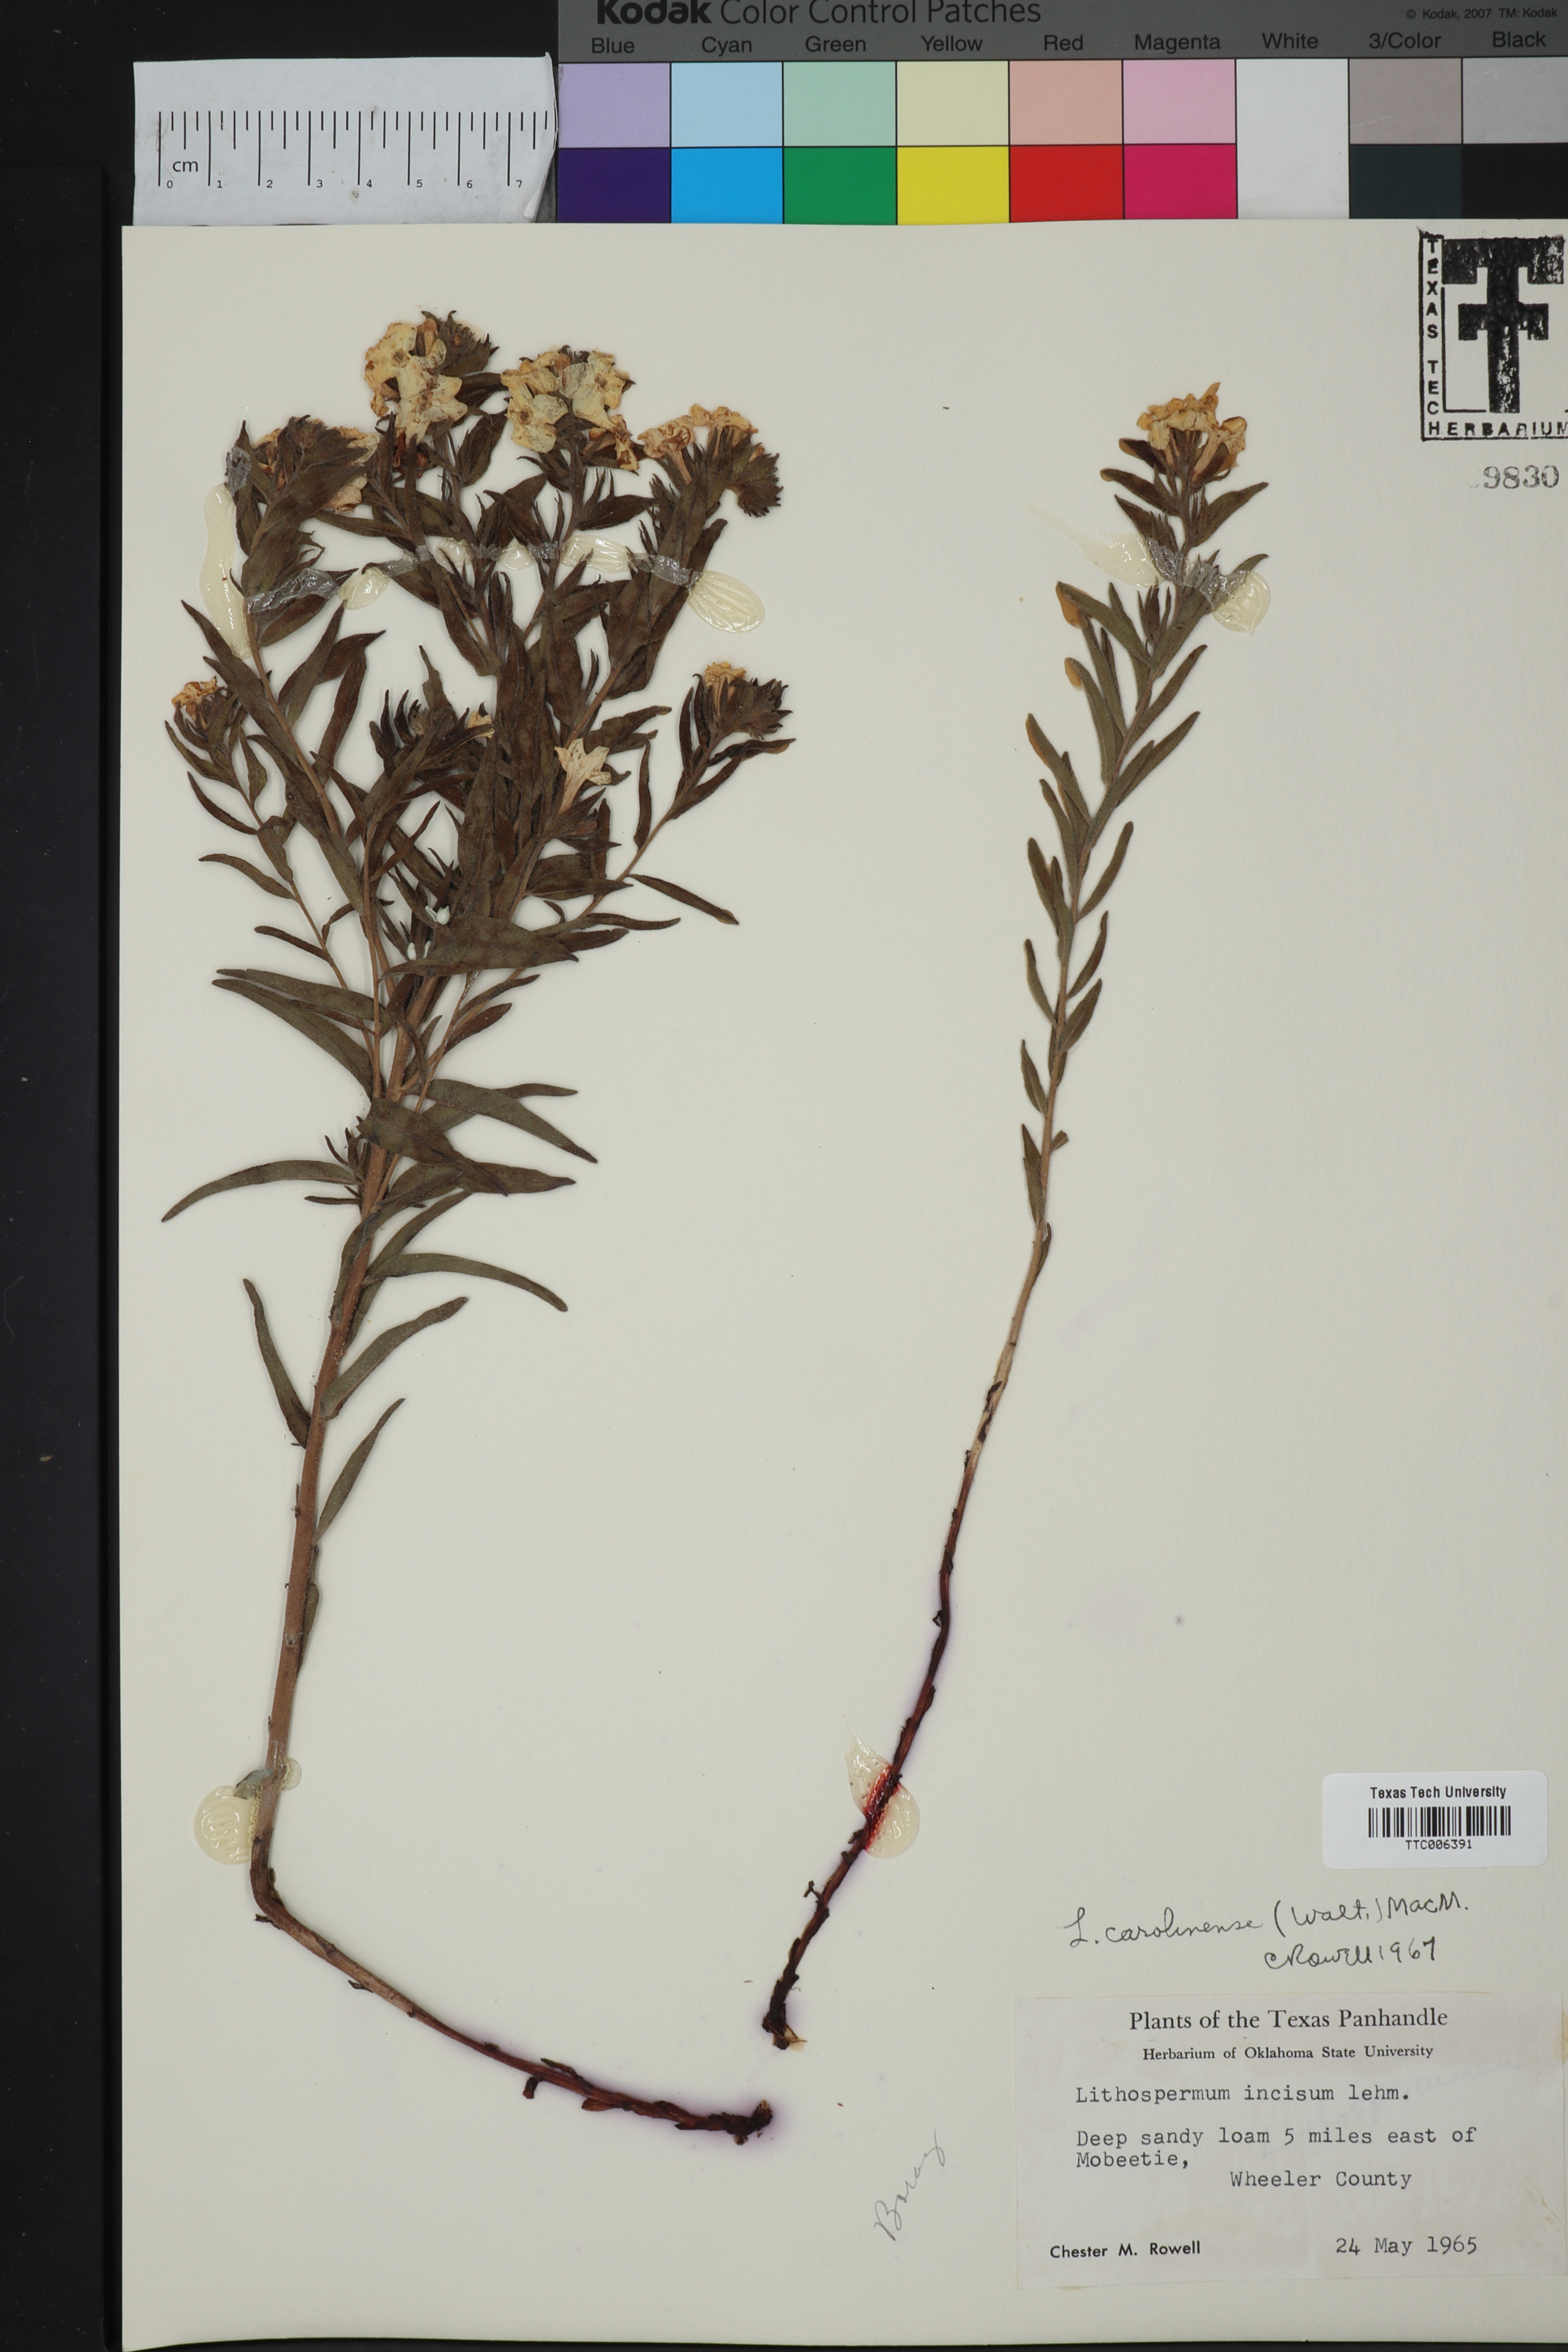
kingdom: Plantae
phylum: Tracheophyta
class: Magnoliopsida
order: Boraginales
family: Boraginaceae
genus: Lithospermum
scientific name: Lithospermum carolinense
